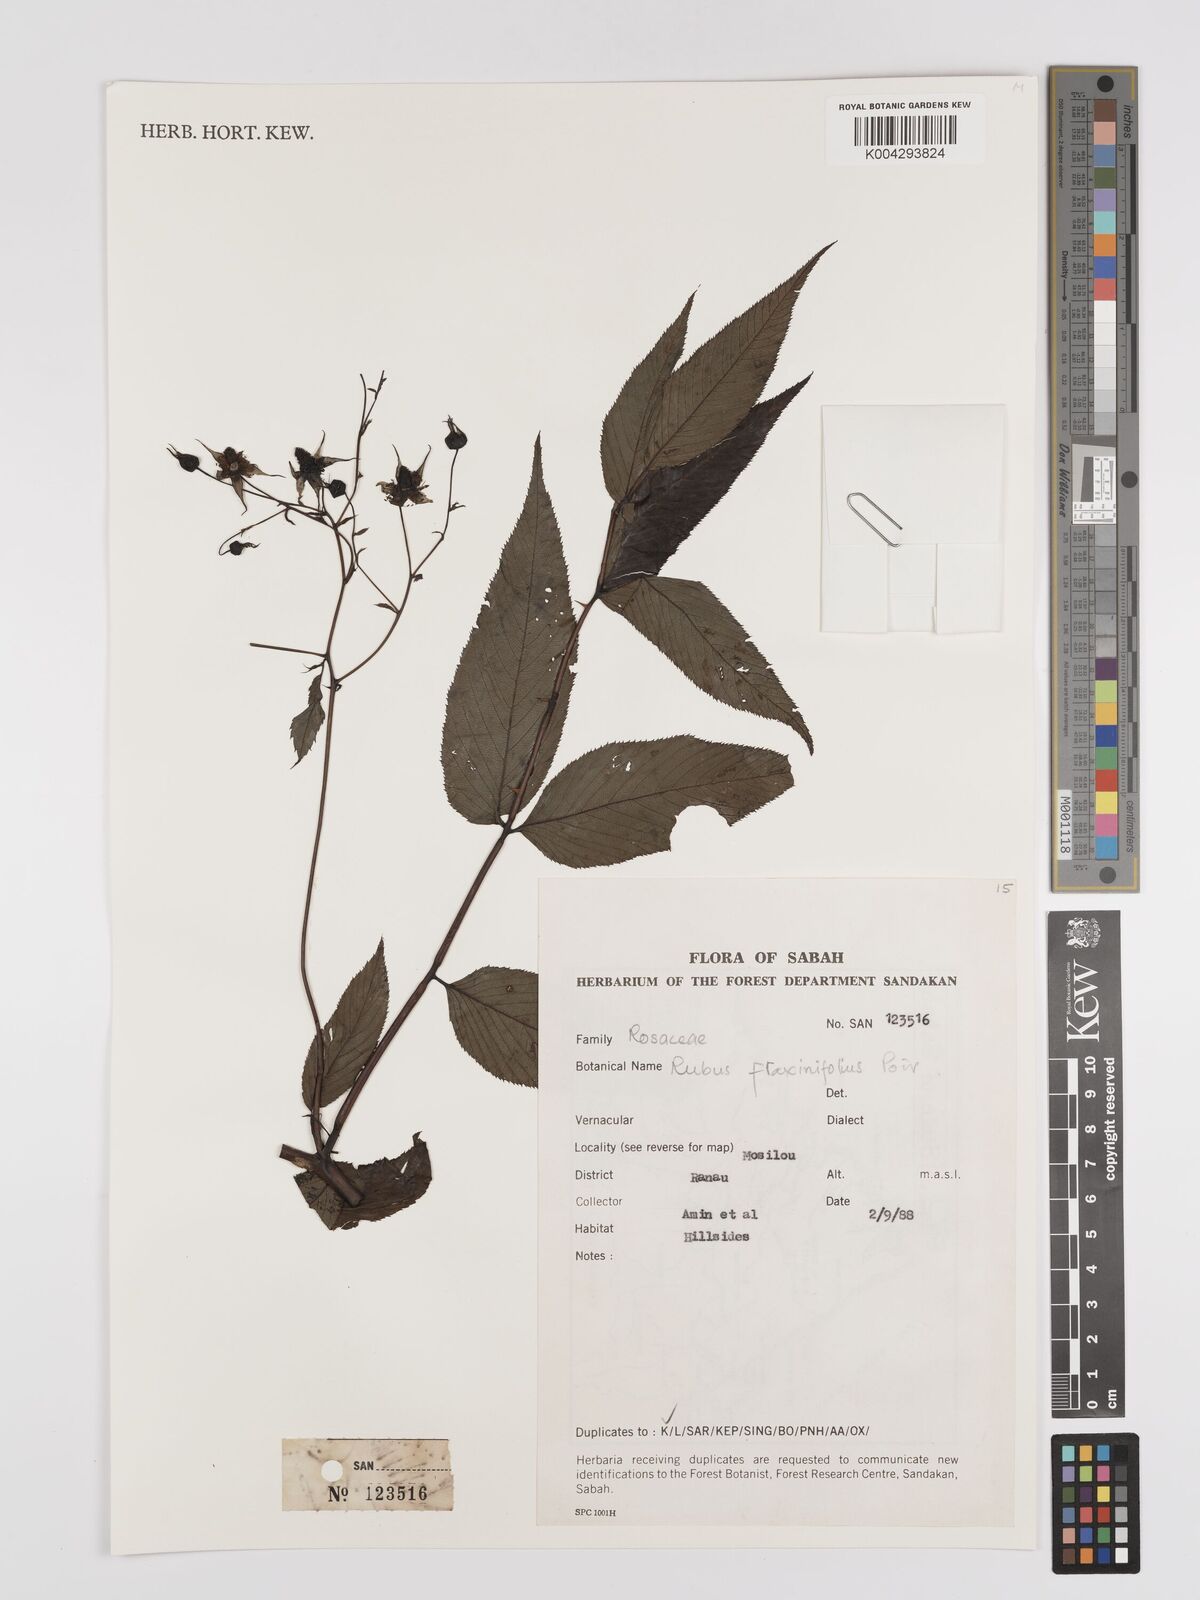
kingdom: Plantae
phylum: Tracheophyta
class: Magnoliopsida
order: Rosales
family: Rosaceae
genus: Rubus
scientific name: Rubus fraxinifolius
